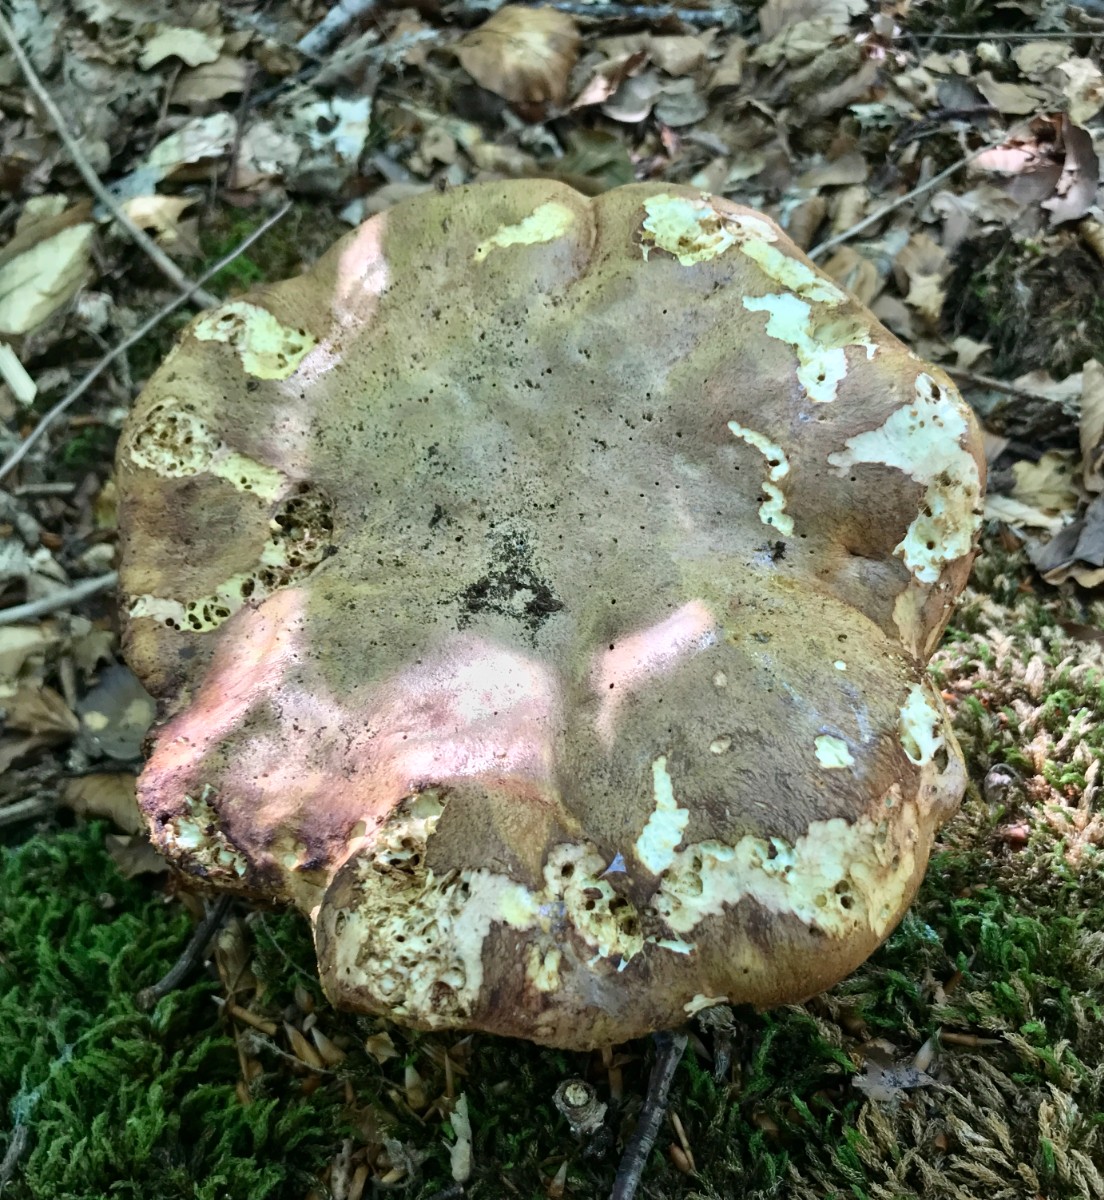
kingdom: Fungi
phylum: Basidiomycota
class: Agaricomycetes
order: Boletales
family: Boletaceae
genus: Butyriboletus
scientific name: Butyriboletus appendiculatus
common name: tenstokket rørhat
